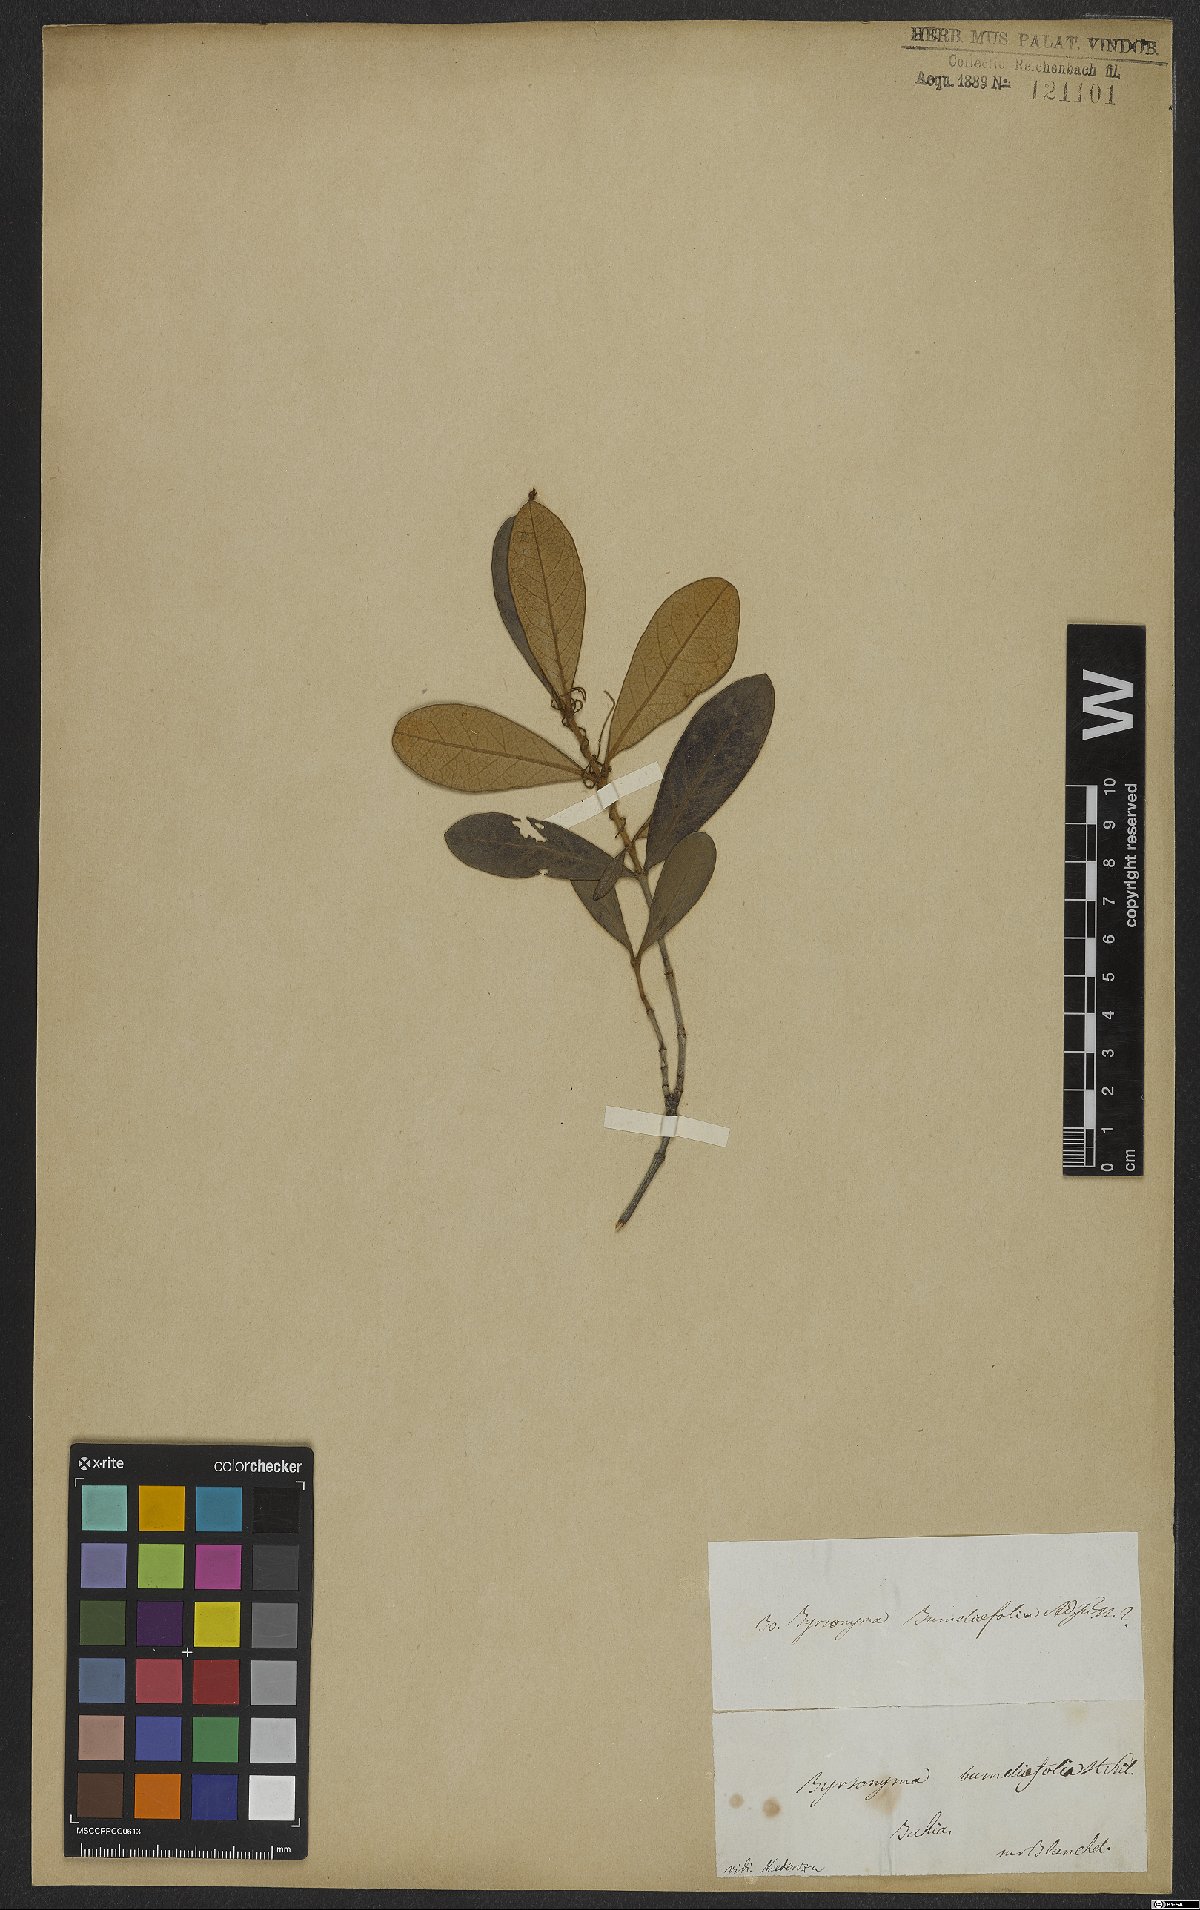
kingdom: Plantae
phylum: Tracheophyta
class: Magnoliopsida
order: Malpighiales
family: Malpighiaceae
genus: Byrsonima
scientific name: Byrsonima bumeliifolia
